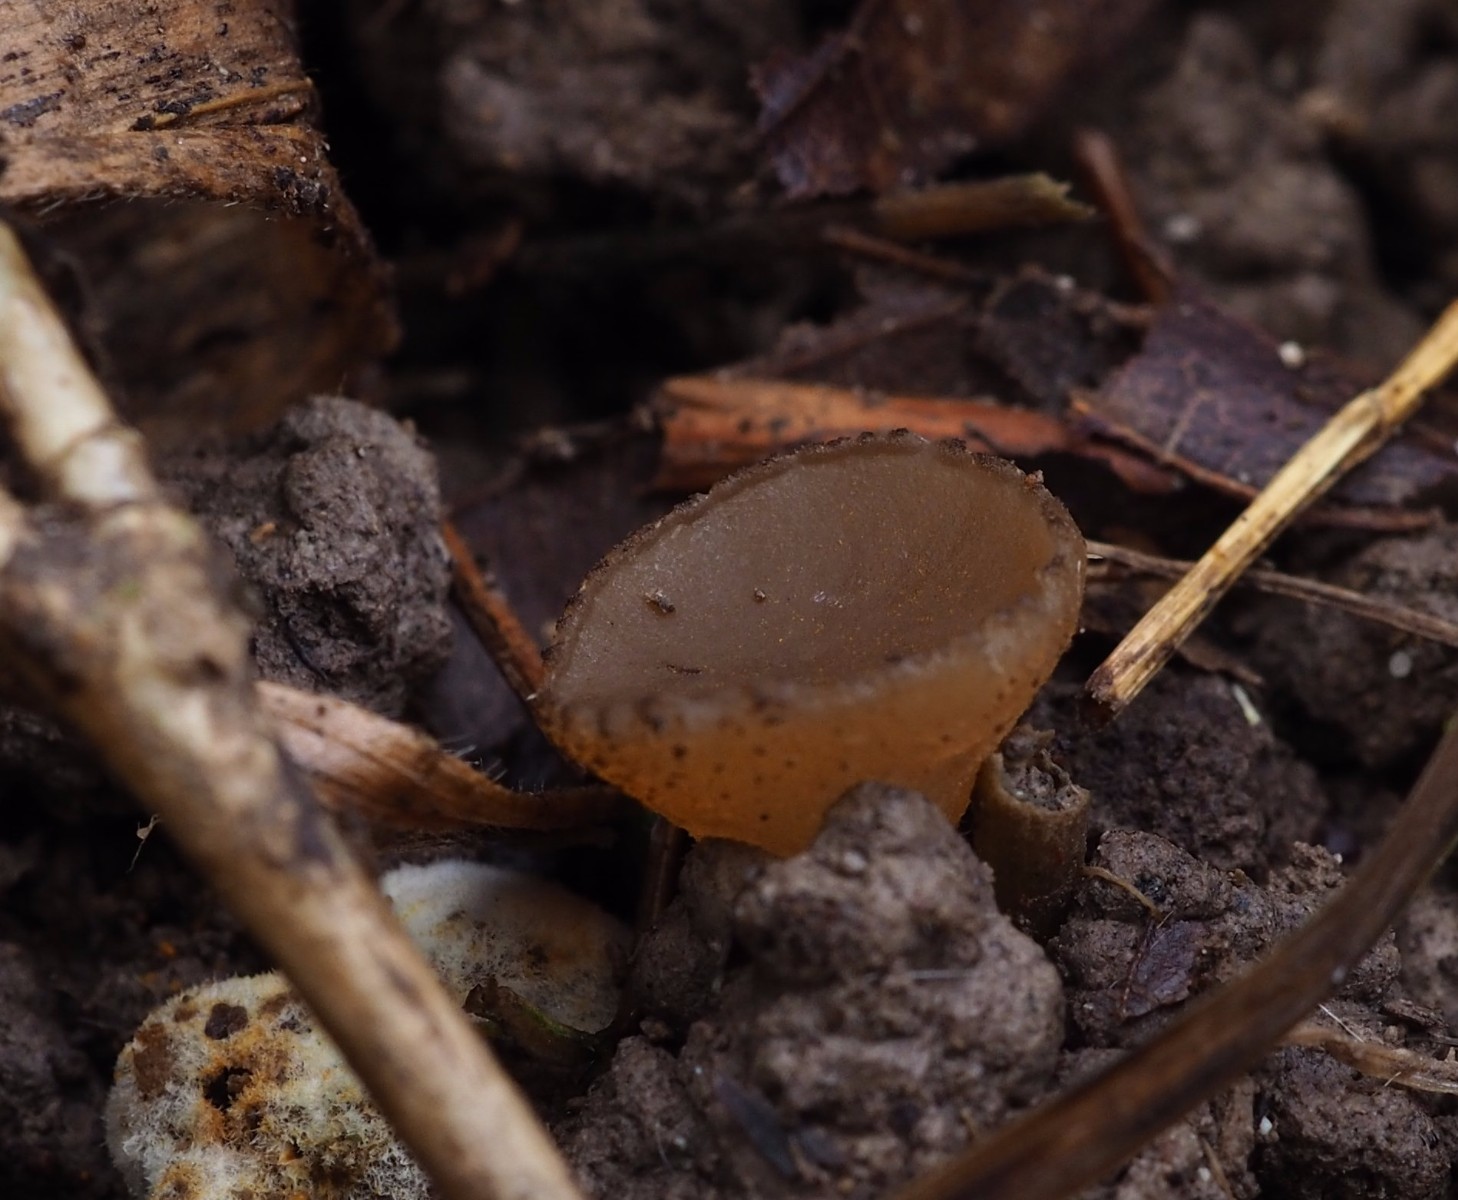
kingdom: Fungi
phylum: Ascomycota
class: Pezizomycetes
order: Pezizales
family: Pezizaceae
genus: Peziza
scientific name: Peziza fimeti
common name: møg-bægersvamp
